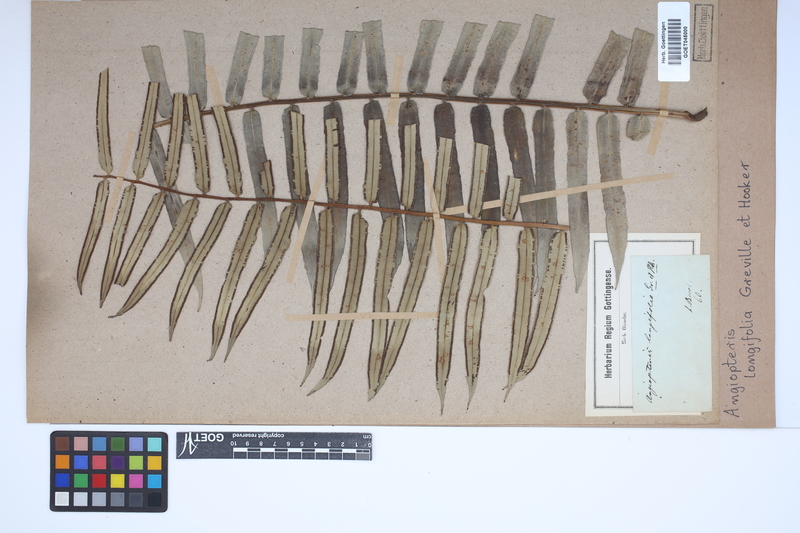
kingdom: Plantae
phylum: Tracheophyta
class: Polypodiopsida
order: Marattiales
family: Marattiaceae
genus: Angiopteris
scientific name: Angiopteris evecta
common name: Mule's-foot fern
